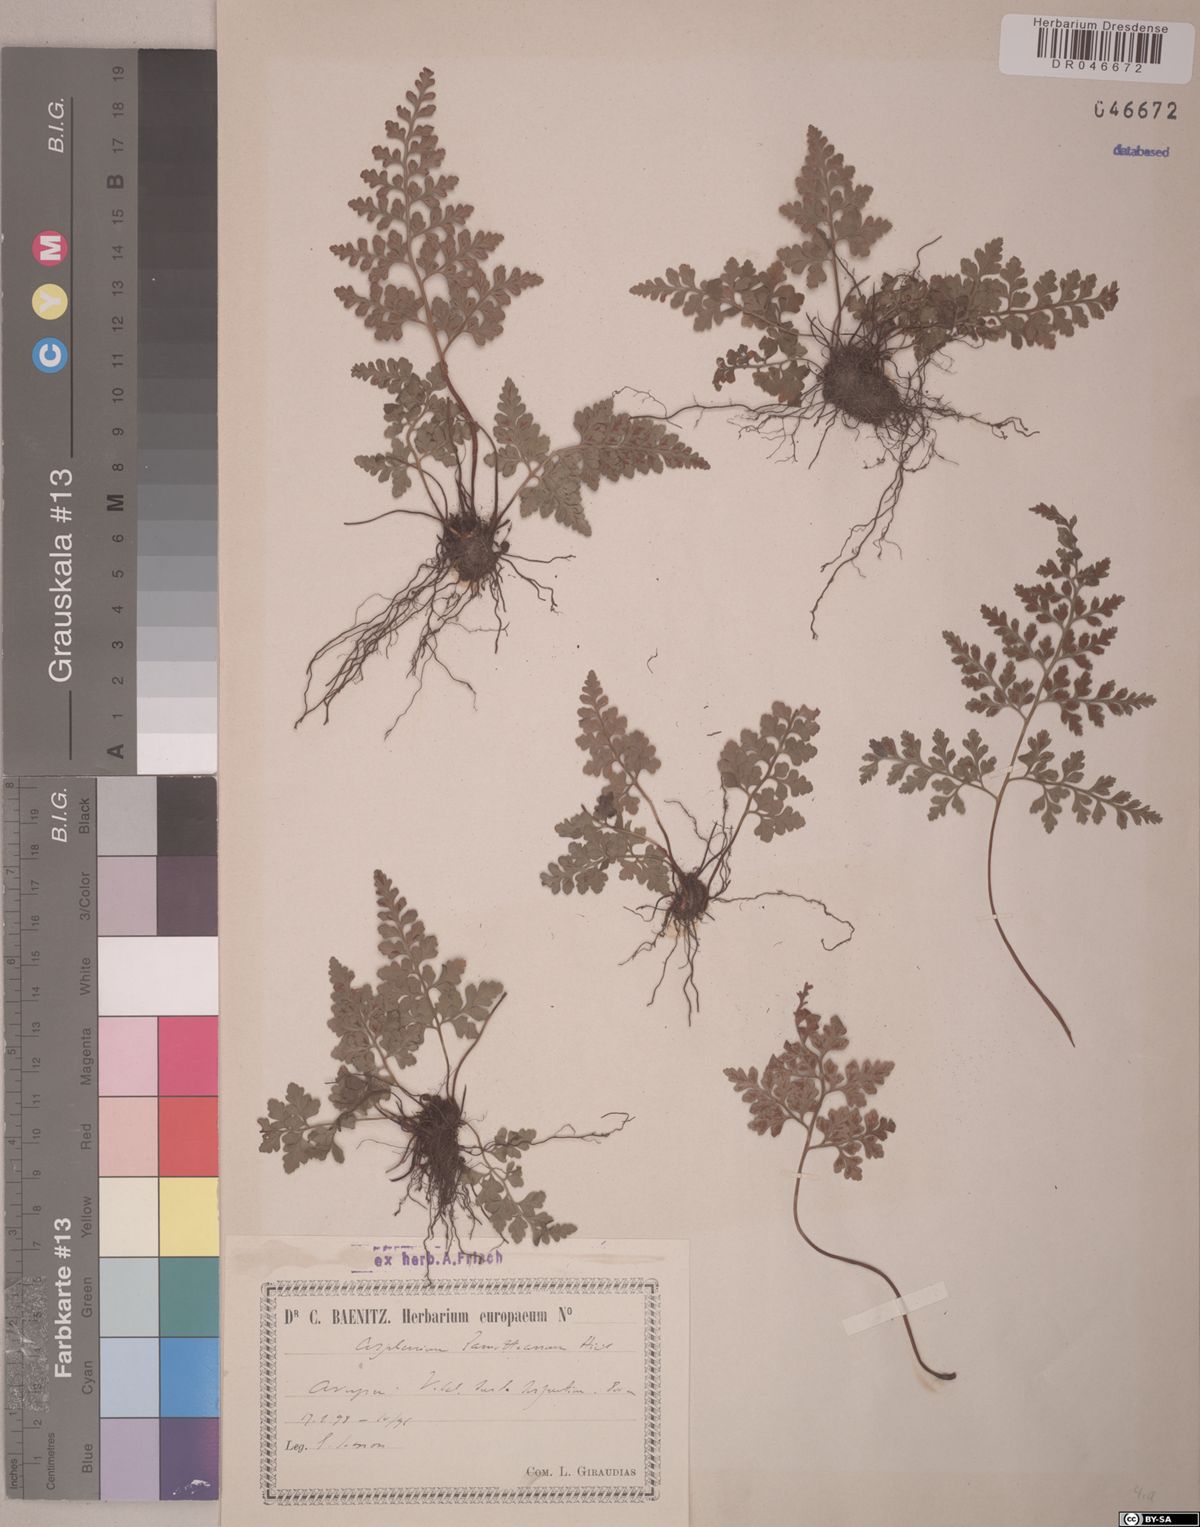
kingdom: Plantae
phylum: Tracheophyta
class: Polypodiopsida
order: Polypodiales
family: Aspleniaceae
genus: Asplenium
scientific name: Asplenium
